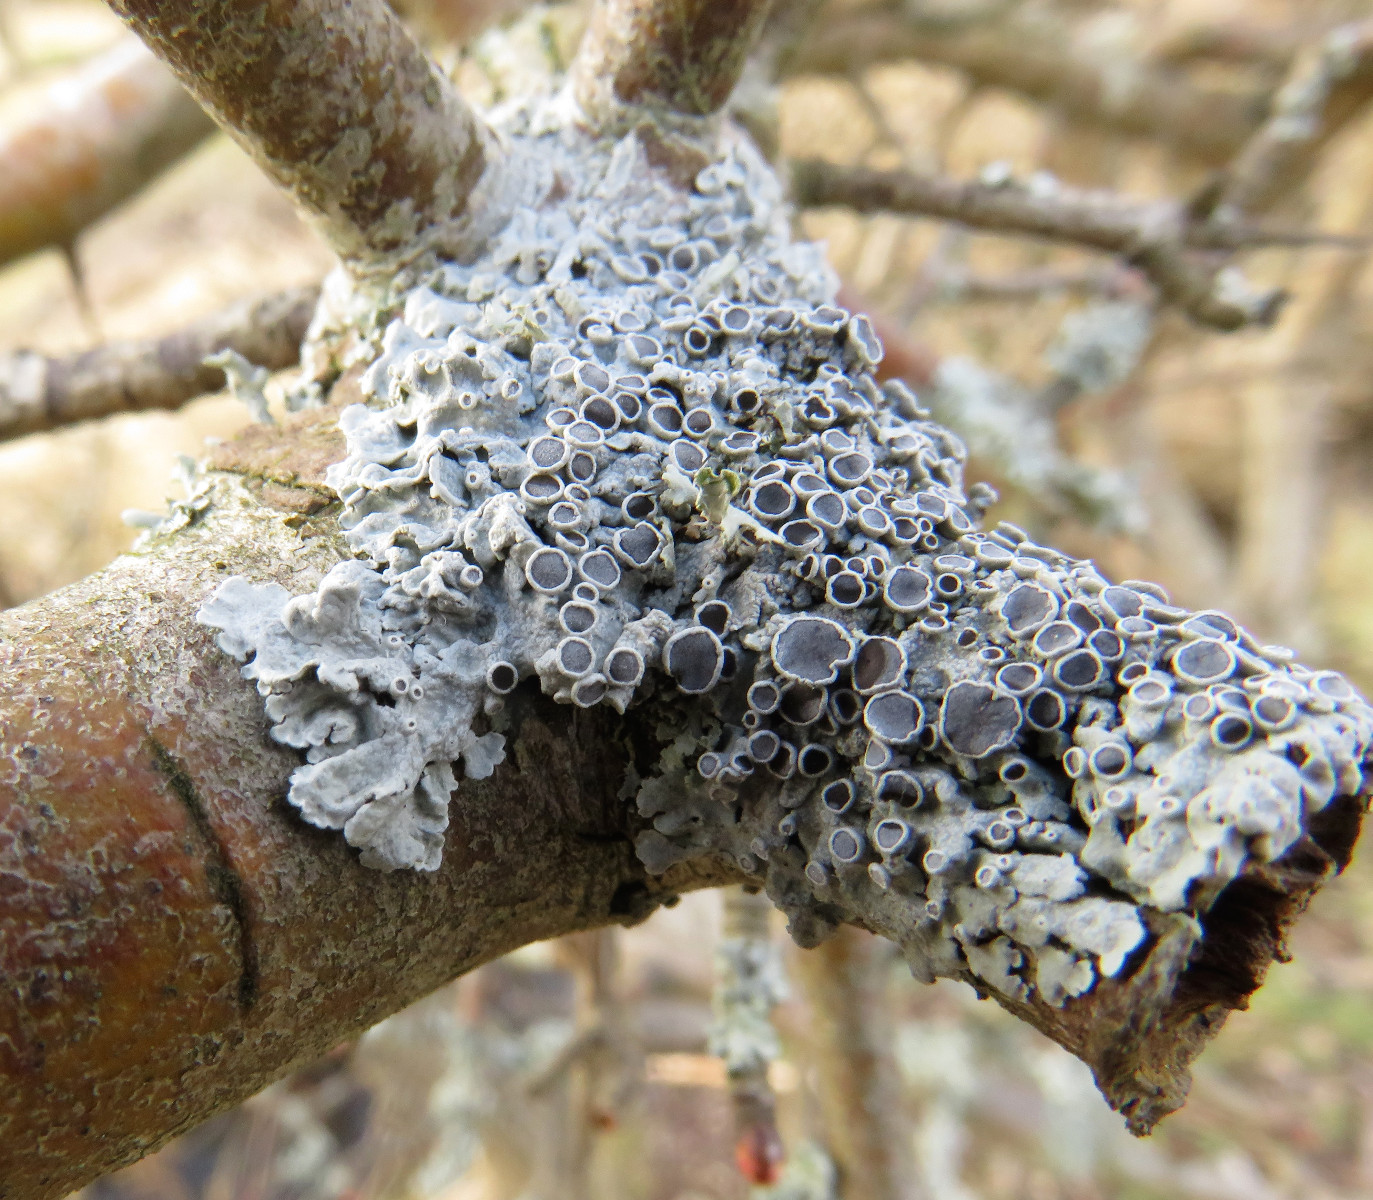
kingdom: Fungi
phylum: Ascomycota
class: Lecanoromycetes
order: Caliciales
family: Physciaceae
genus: Physcia
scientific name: Physcia aipolia
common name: hvidprikket rosetlav
